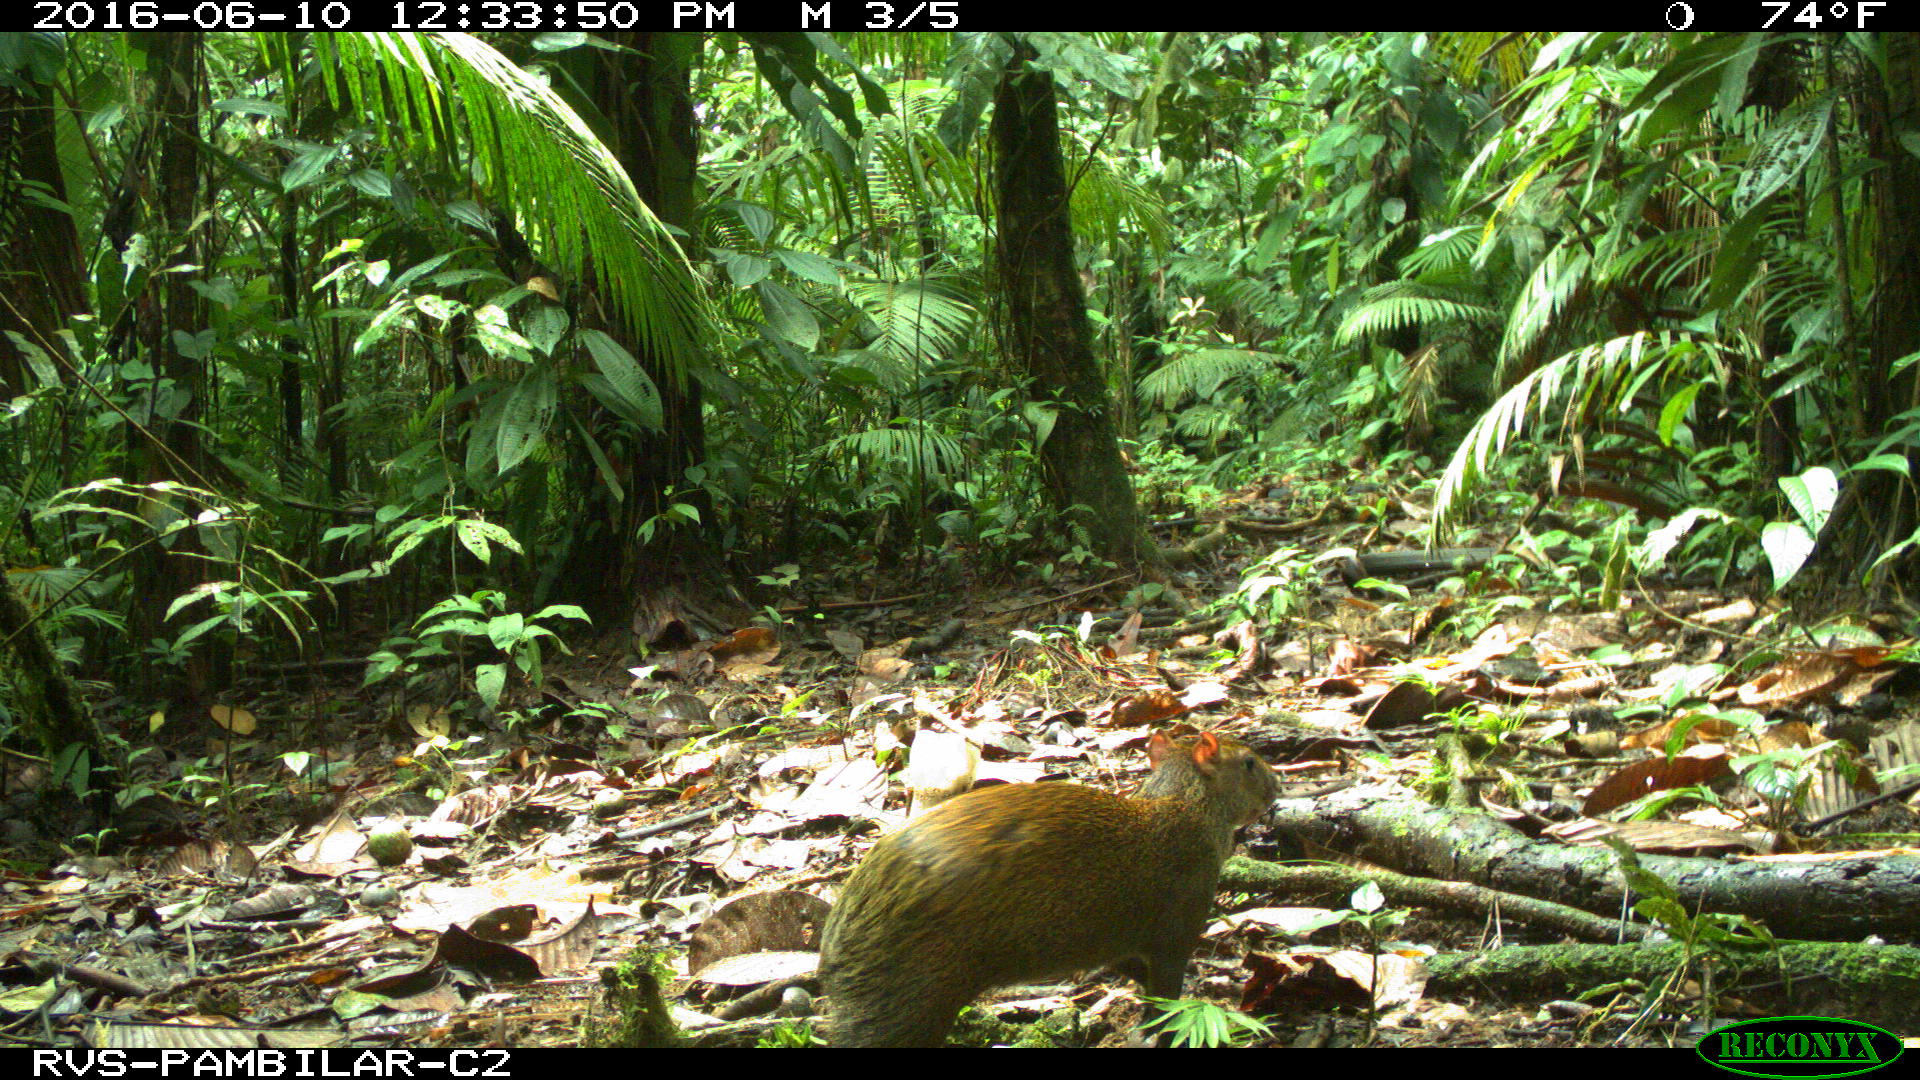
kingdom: Animalia
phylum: Chordata
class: Mammalia
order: Rodentia
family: Dasyproctidae
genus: Dasyprocta
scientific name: Dasyprocta punctata
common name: Central american agouti
